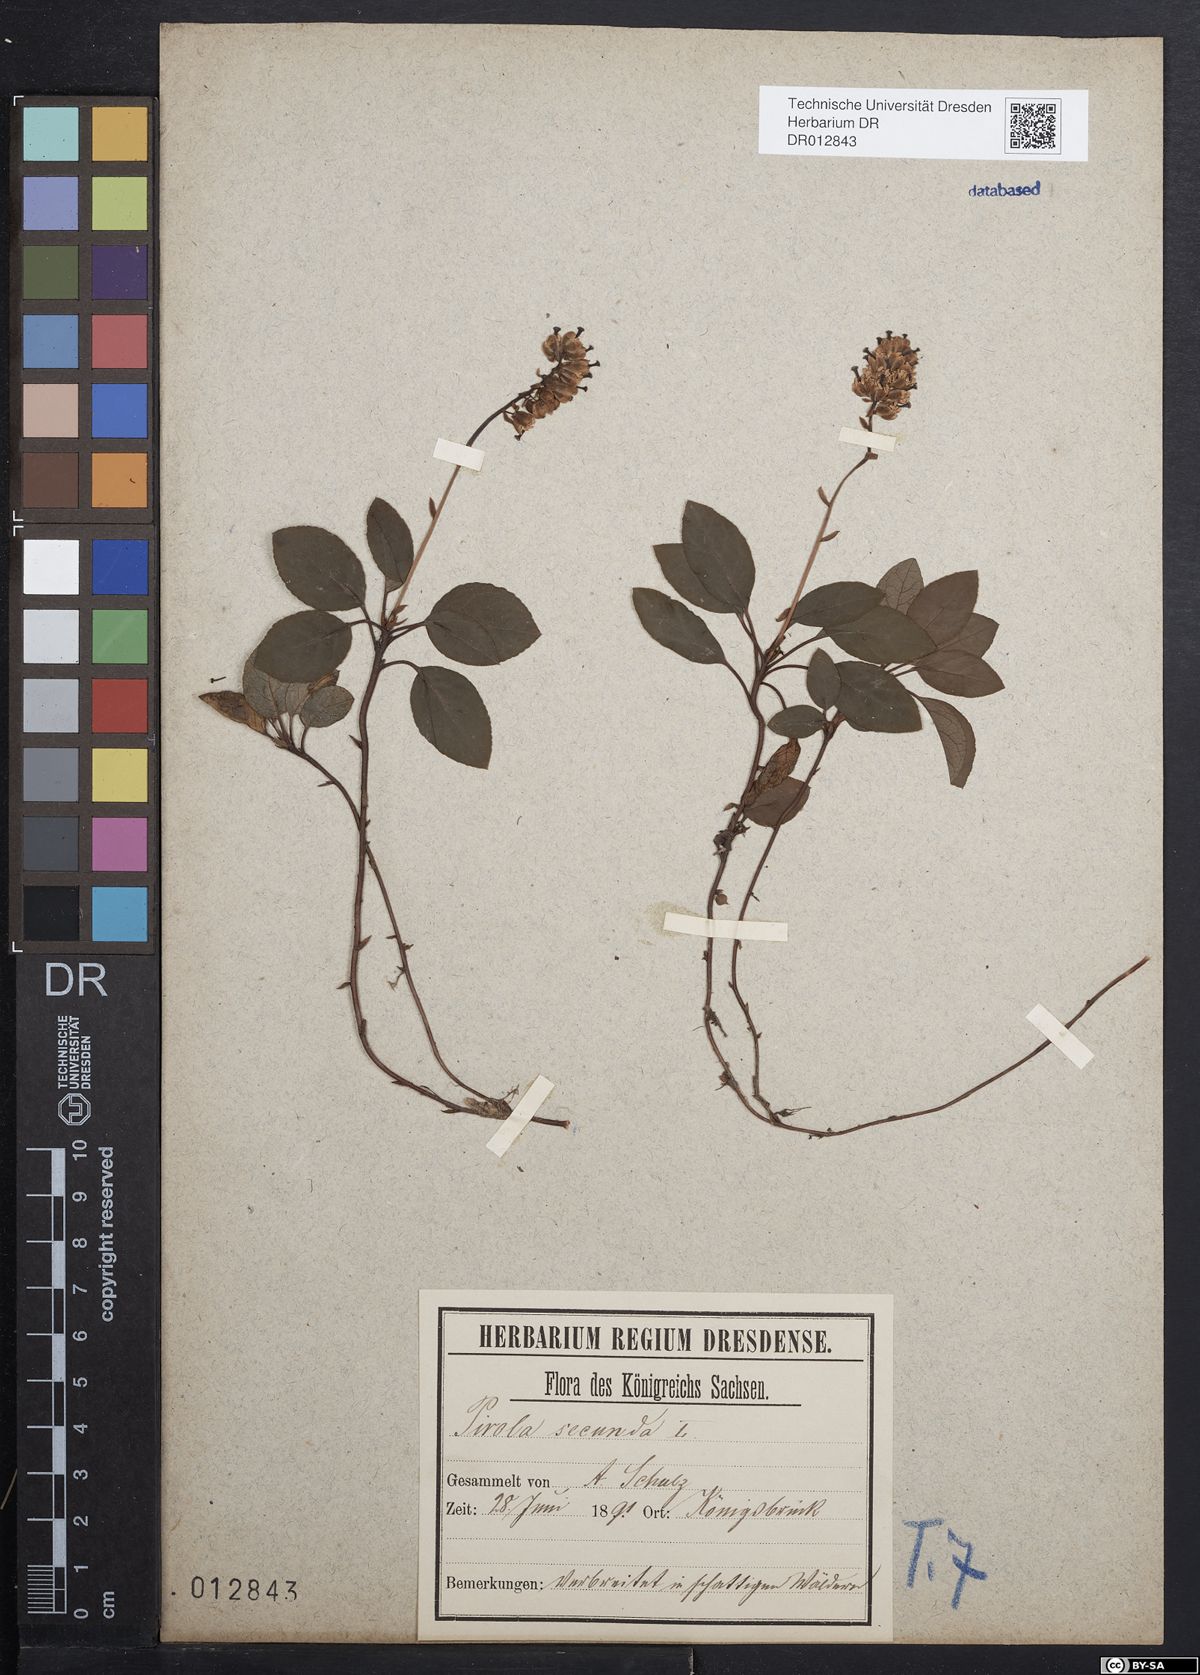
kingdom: Plantae
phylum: Tracheophyta
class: Magnoliopsida
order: Ericales
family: Ericaceae
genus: Orthilia
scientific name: Orthilia secunda
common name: One-sided orthilia
